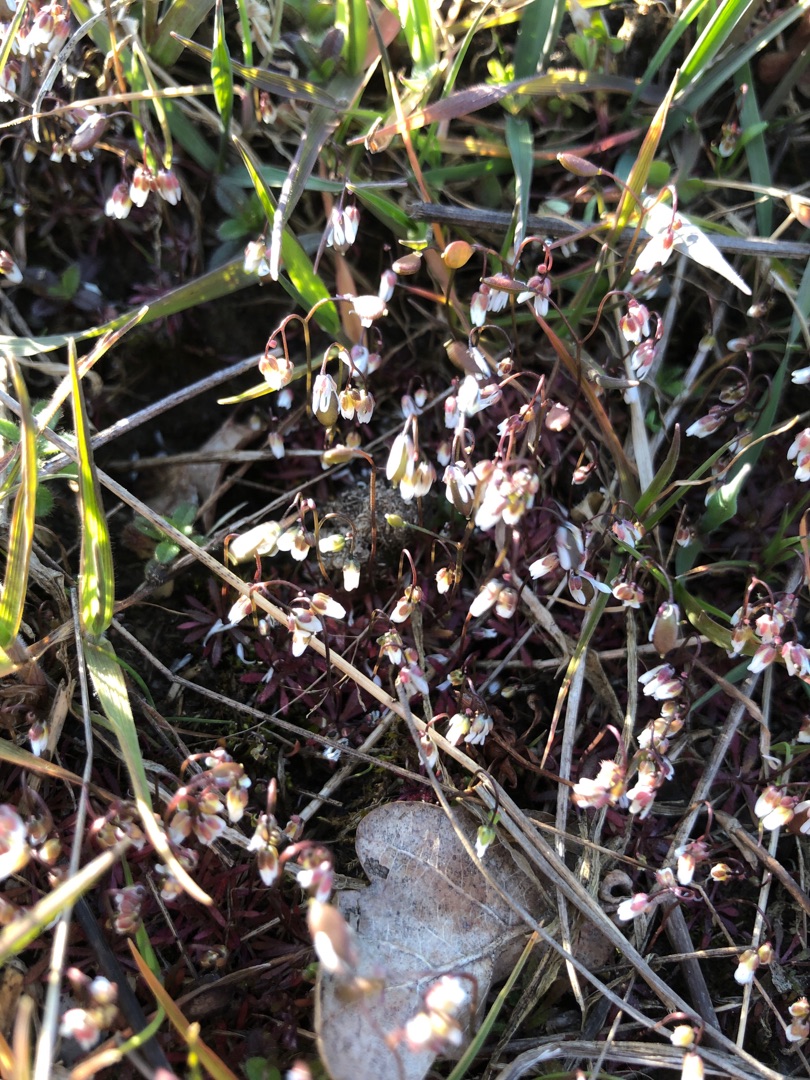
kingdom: Plantae
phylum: Tracheophyta
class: Magnoliopsida
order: Brassicales
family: Brassicaceae
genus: Draba
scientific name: Draba verna
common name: Vår-gæslingeblomst
